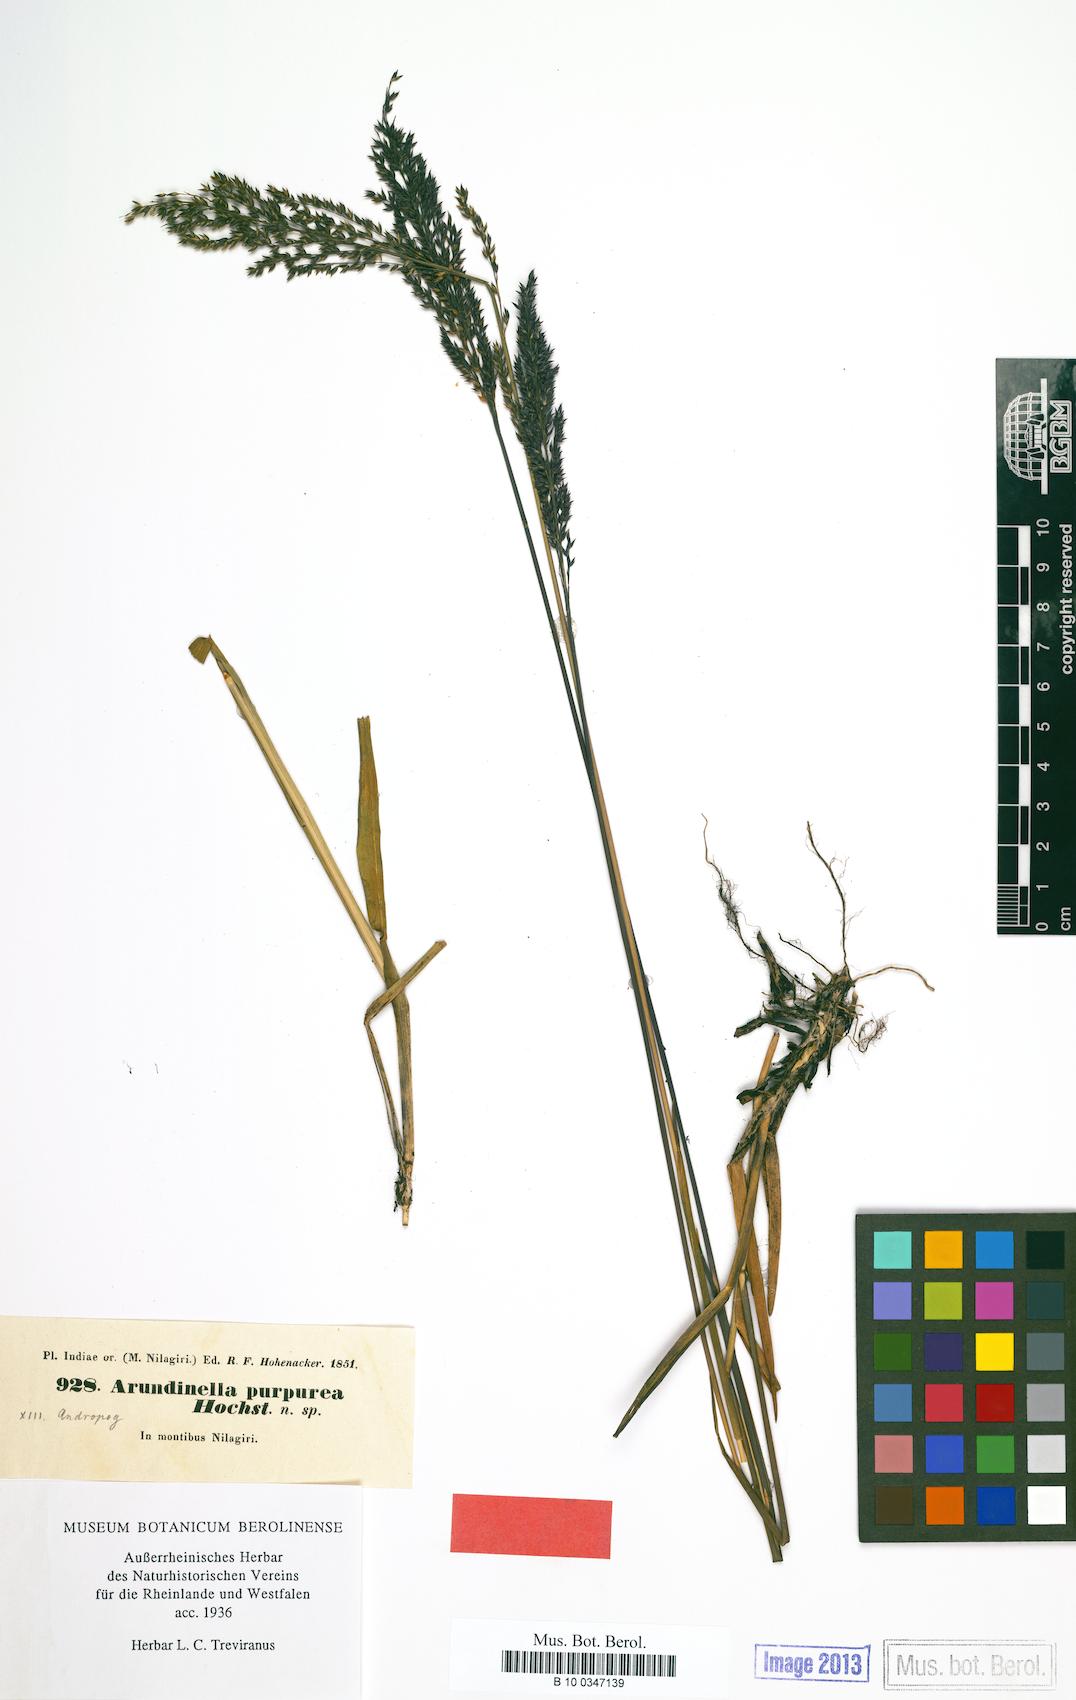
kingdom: Plantae
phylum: Tracheophyta
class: Liliopsida
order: Poales
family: Poaceae
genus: Arundinella
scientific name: Arundinella fuscata
